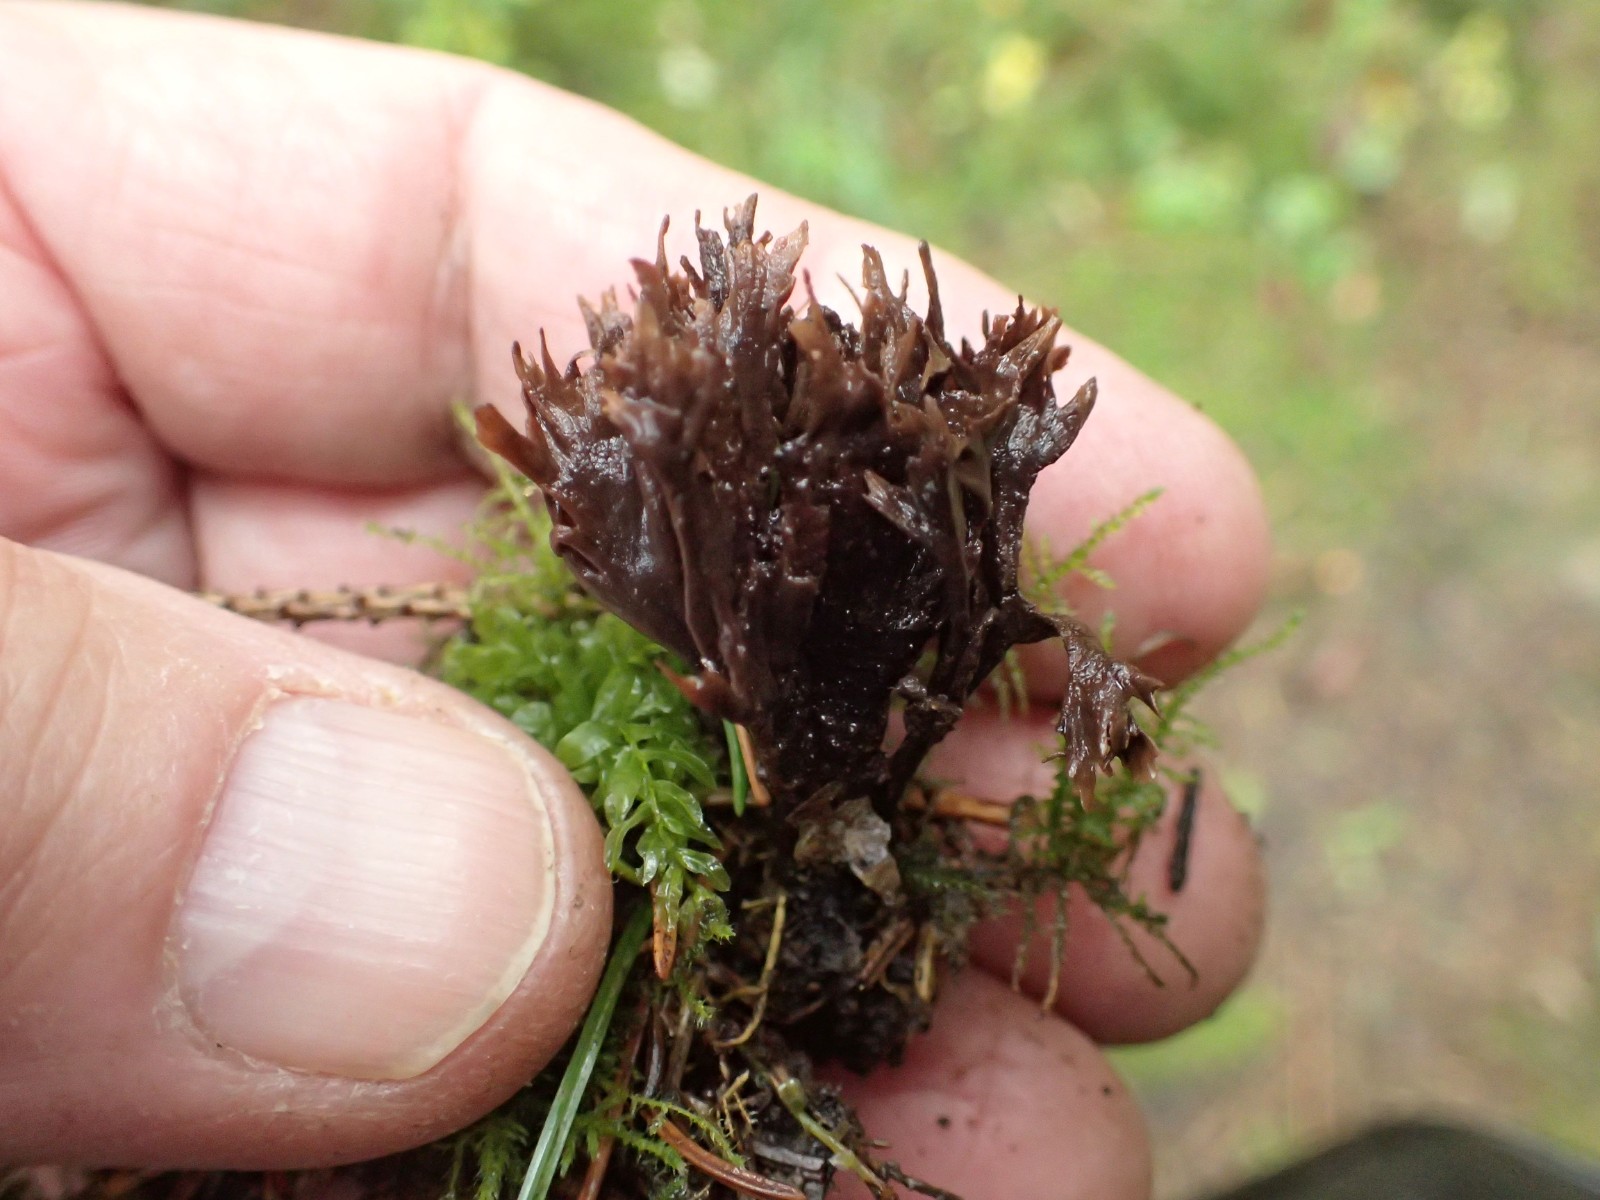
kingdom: Fungi
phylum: Basidiomycota
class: Agaricomycetes
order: Thelephorales
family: Thelephoraceae
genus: Thelephora
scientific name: Thelephora
